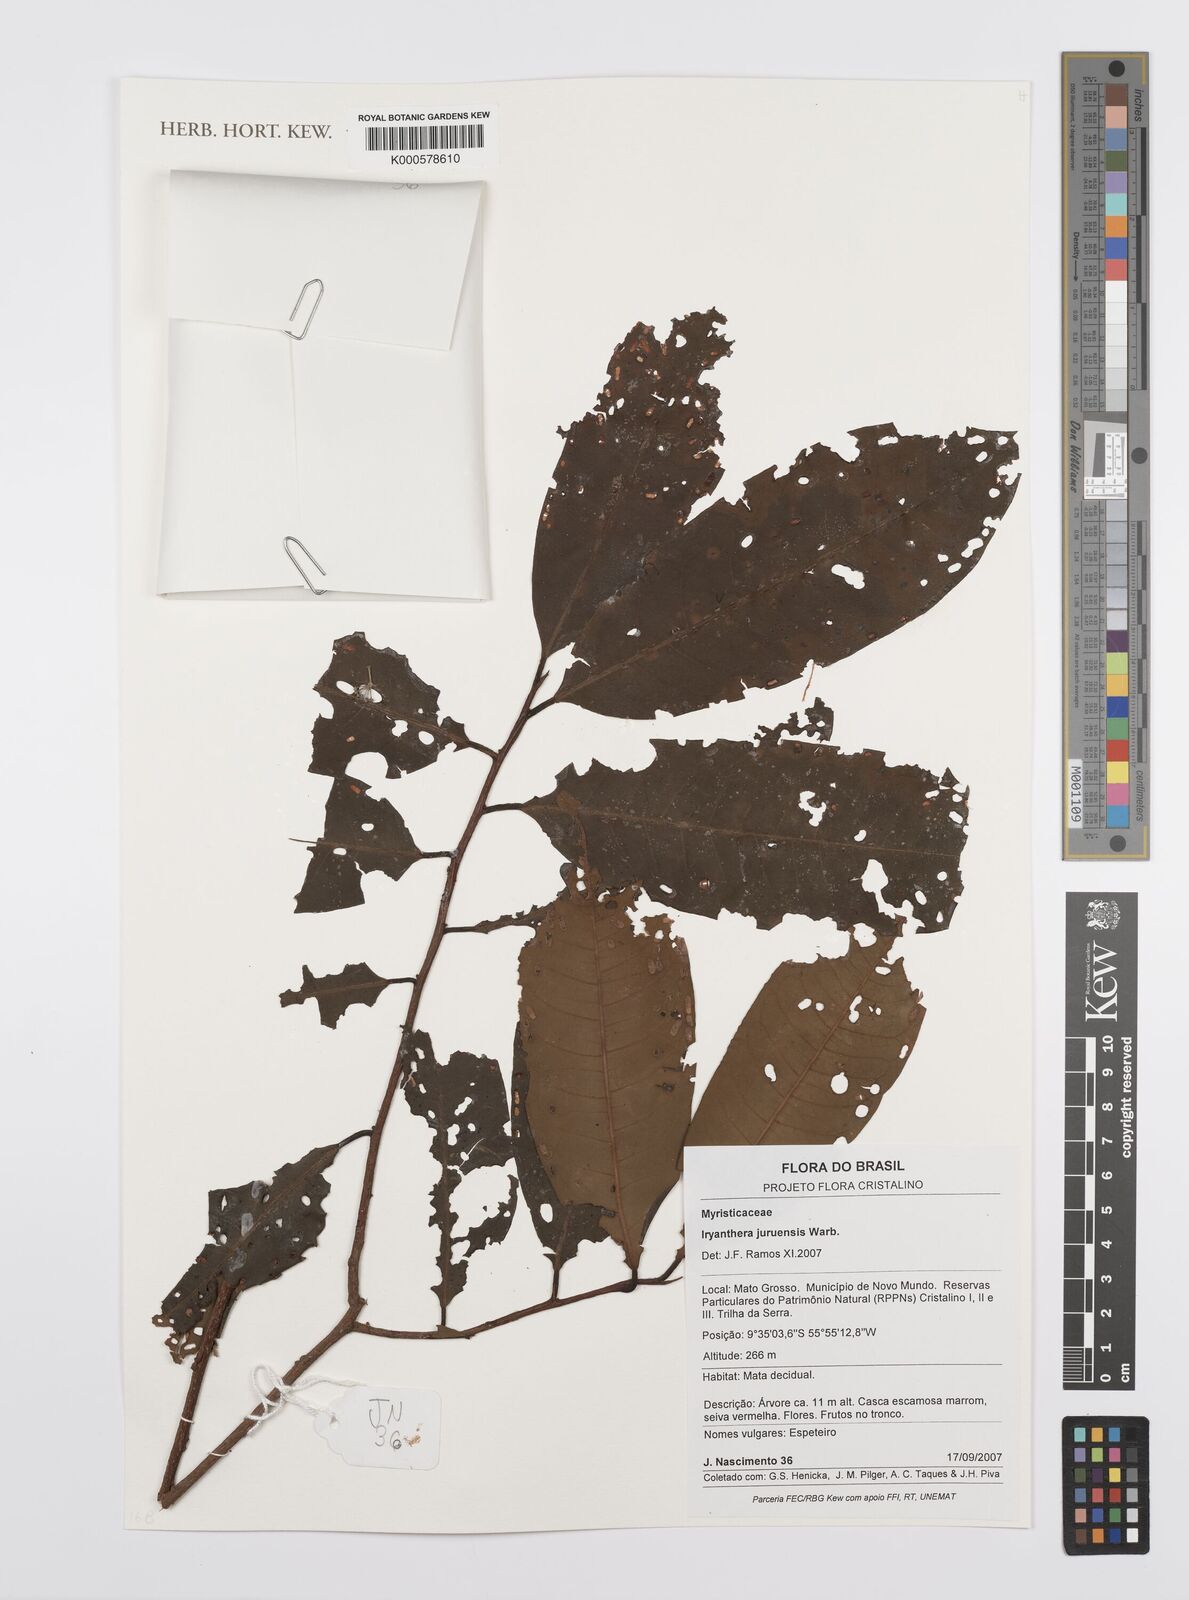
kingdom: Plantae
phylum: Tracheophyta
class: Magnoliopsida
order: Magnoliales
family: Myristicaceae
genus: Iryanthera
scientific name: Iryanthera juruensis
